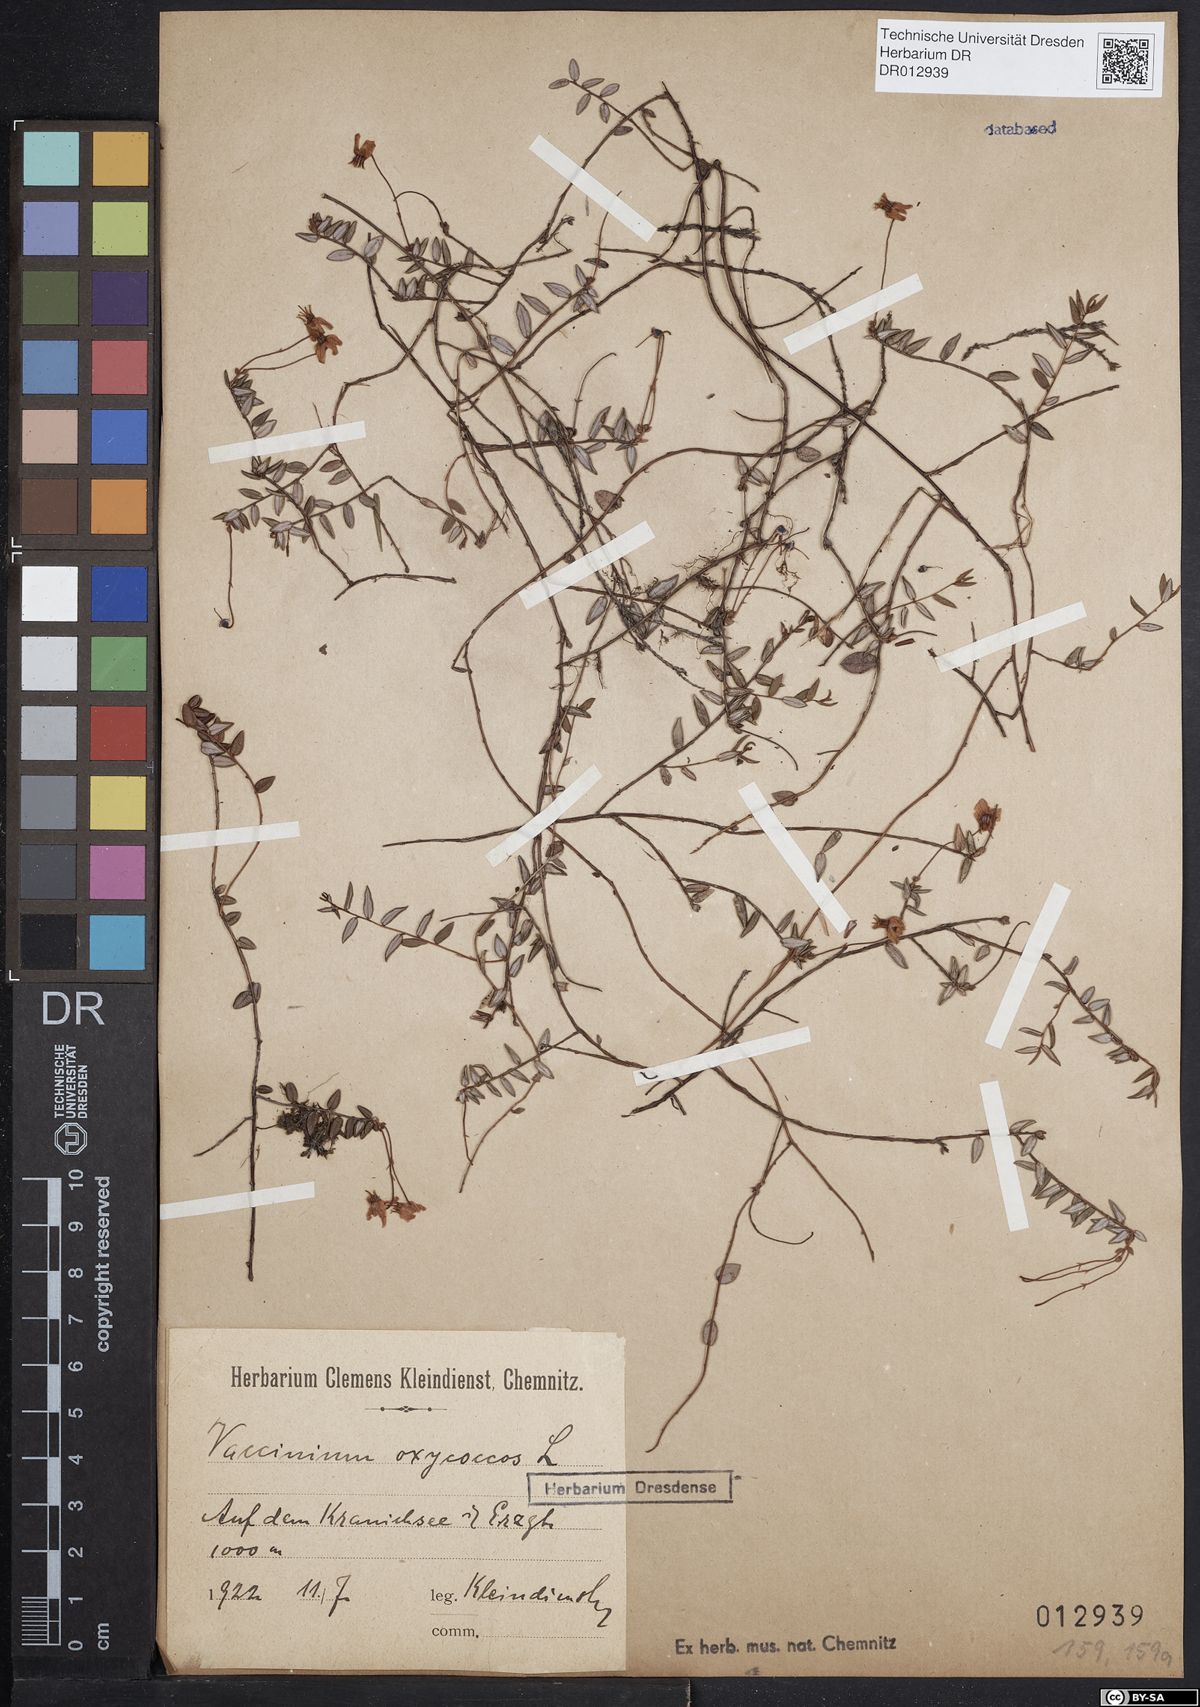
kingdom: Plantae
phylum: Tracheophyta
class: Magnoliopsida
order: Ericales
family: Ericaceae
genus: Vaccinium
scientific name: Vaccinium oxycoccos
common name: Cranberry
